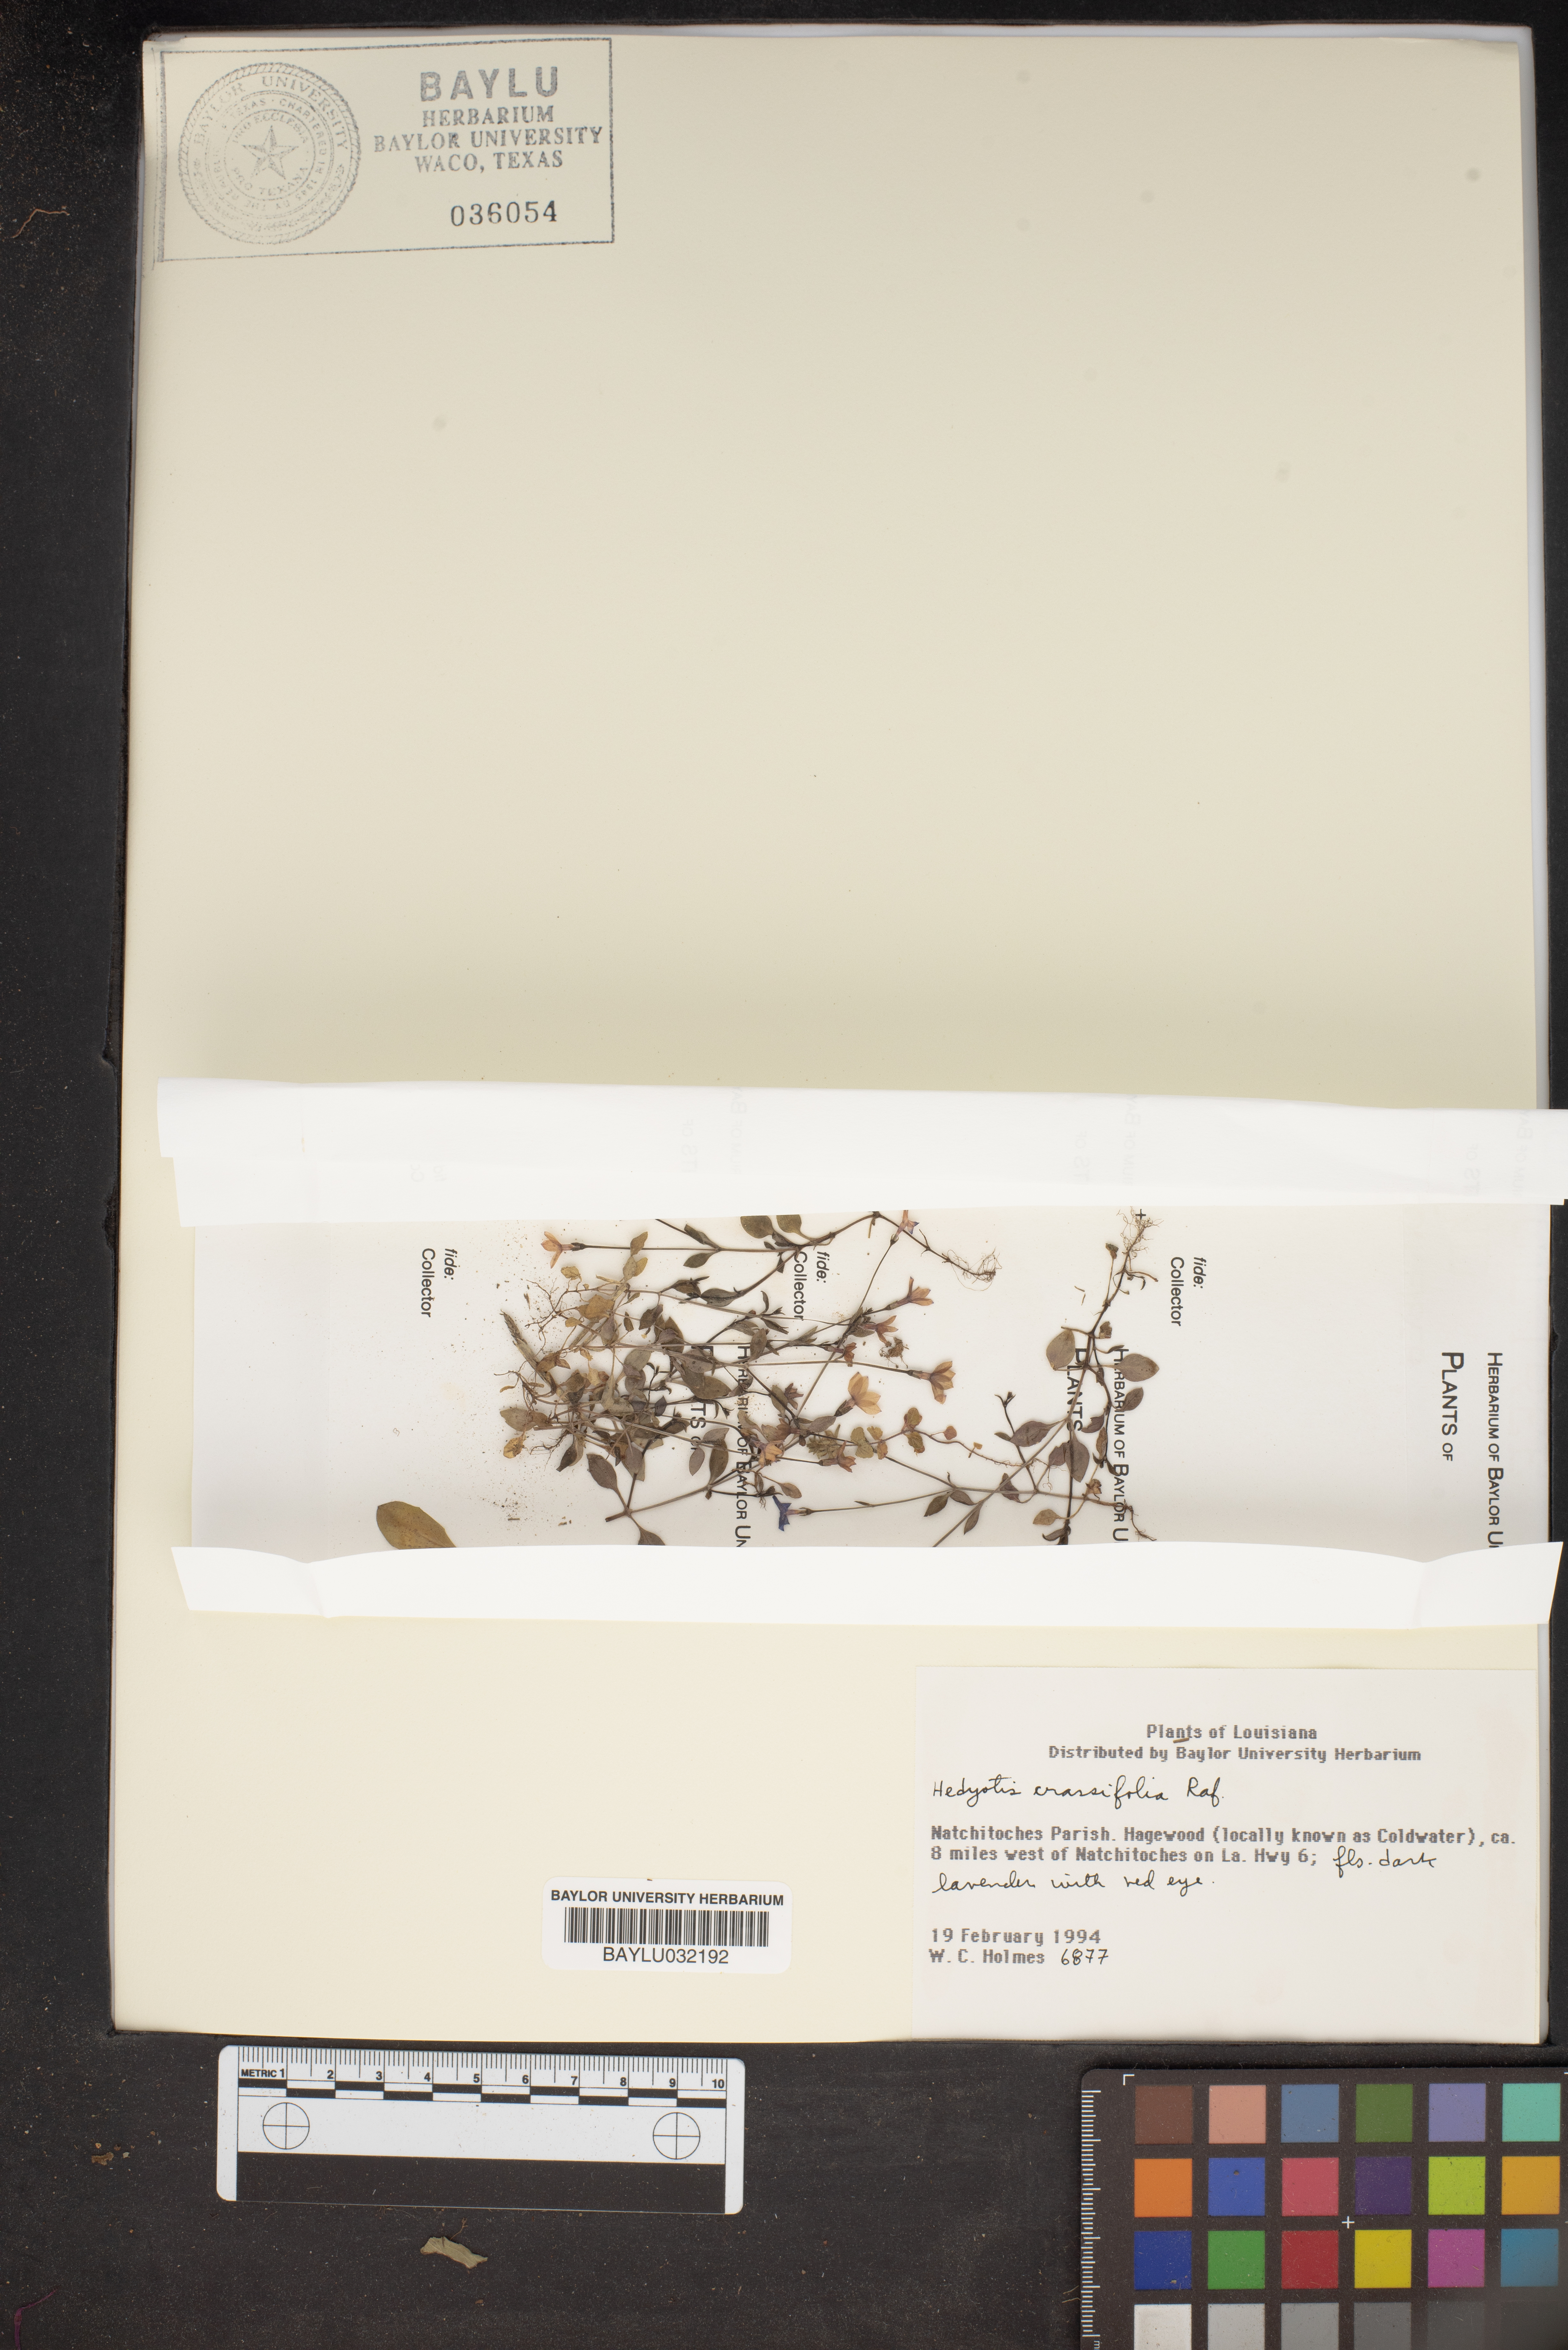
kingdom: Plantae
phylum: Tracheophyta
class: Magnoliopsida
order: Gentianales
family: Rubiaceae
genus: Houstonia
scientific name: Houstonia pusilla
